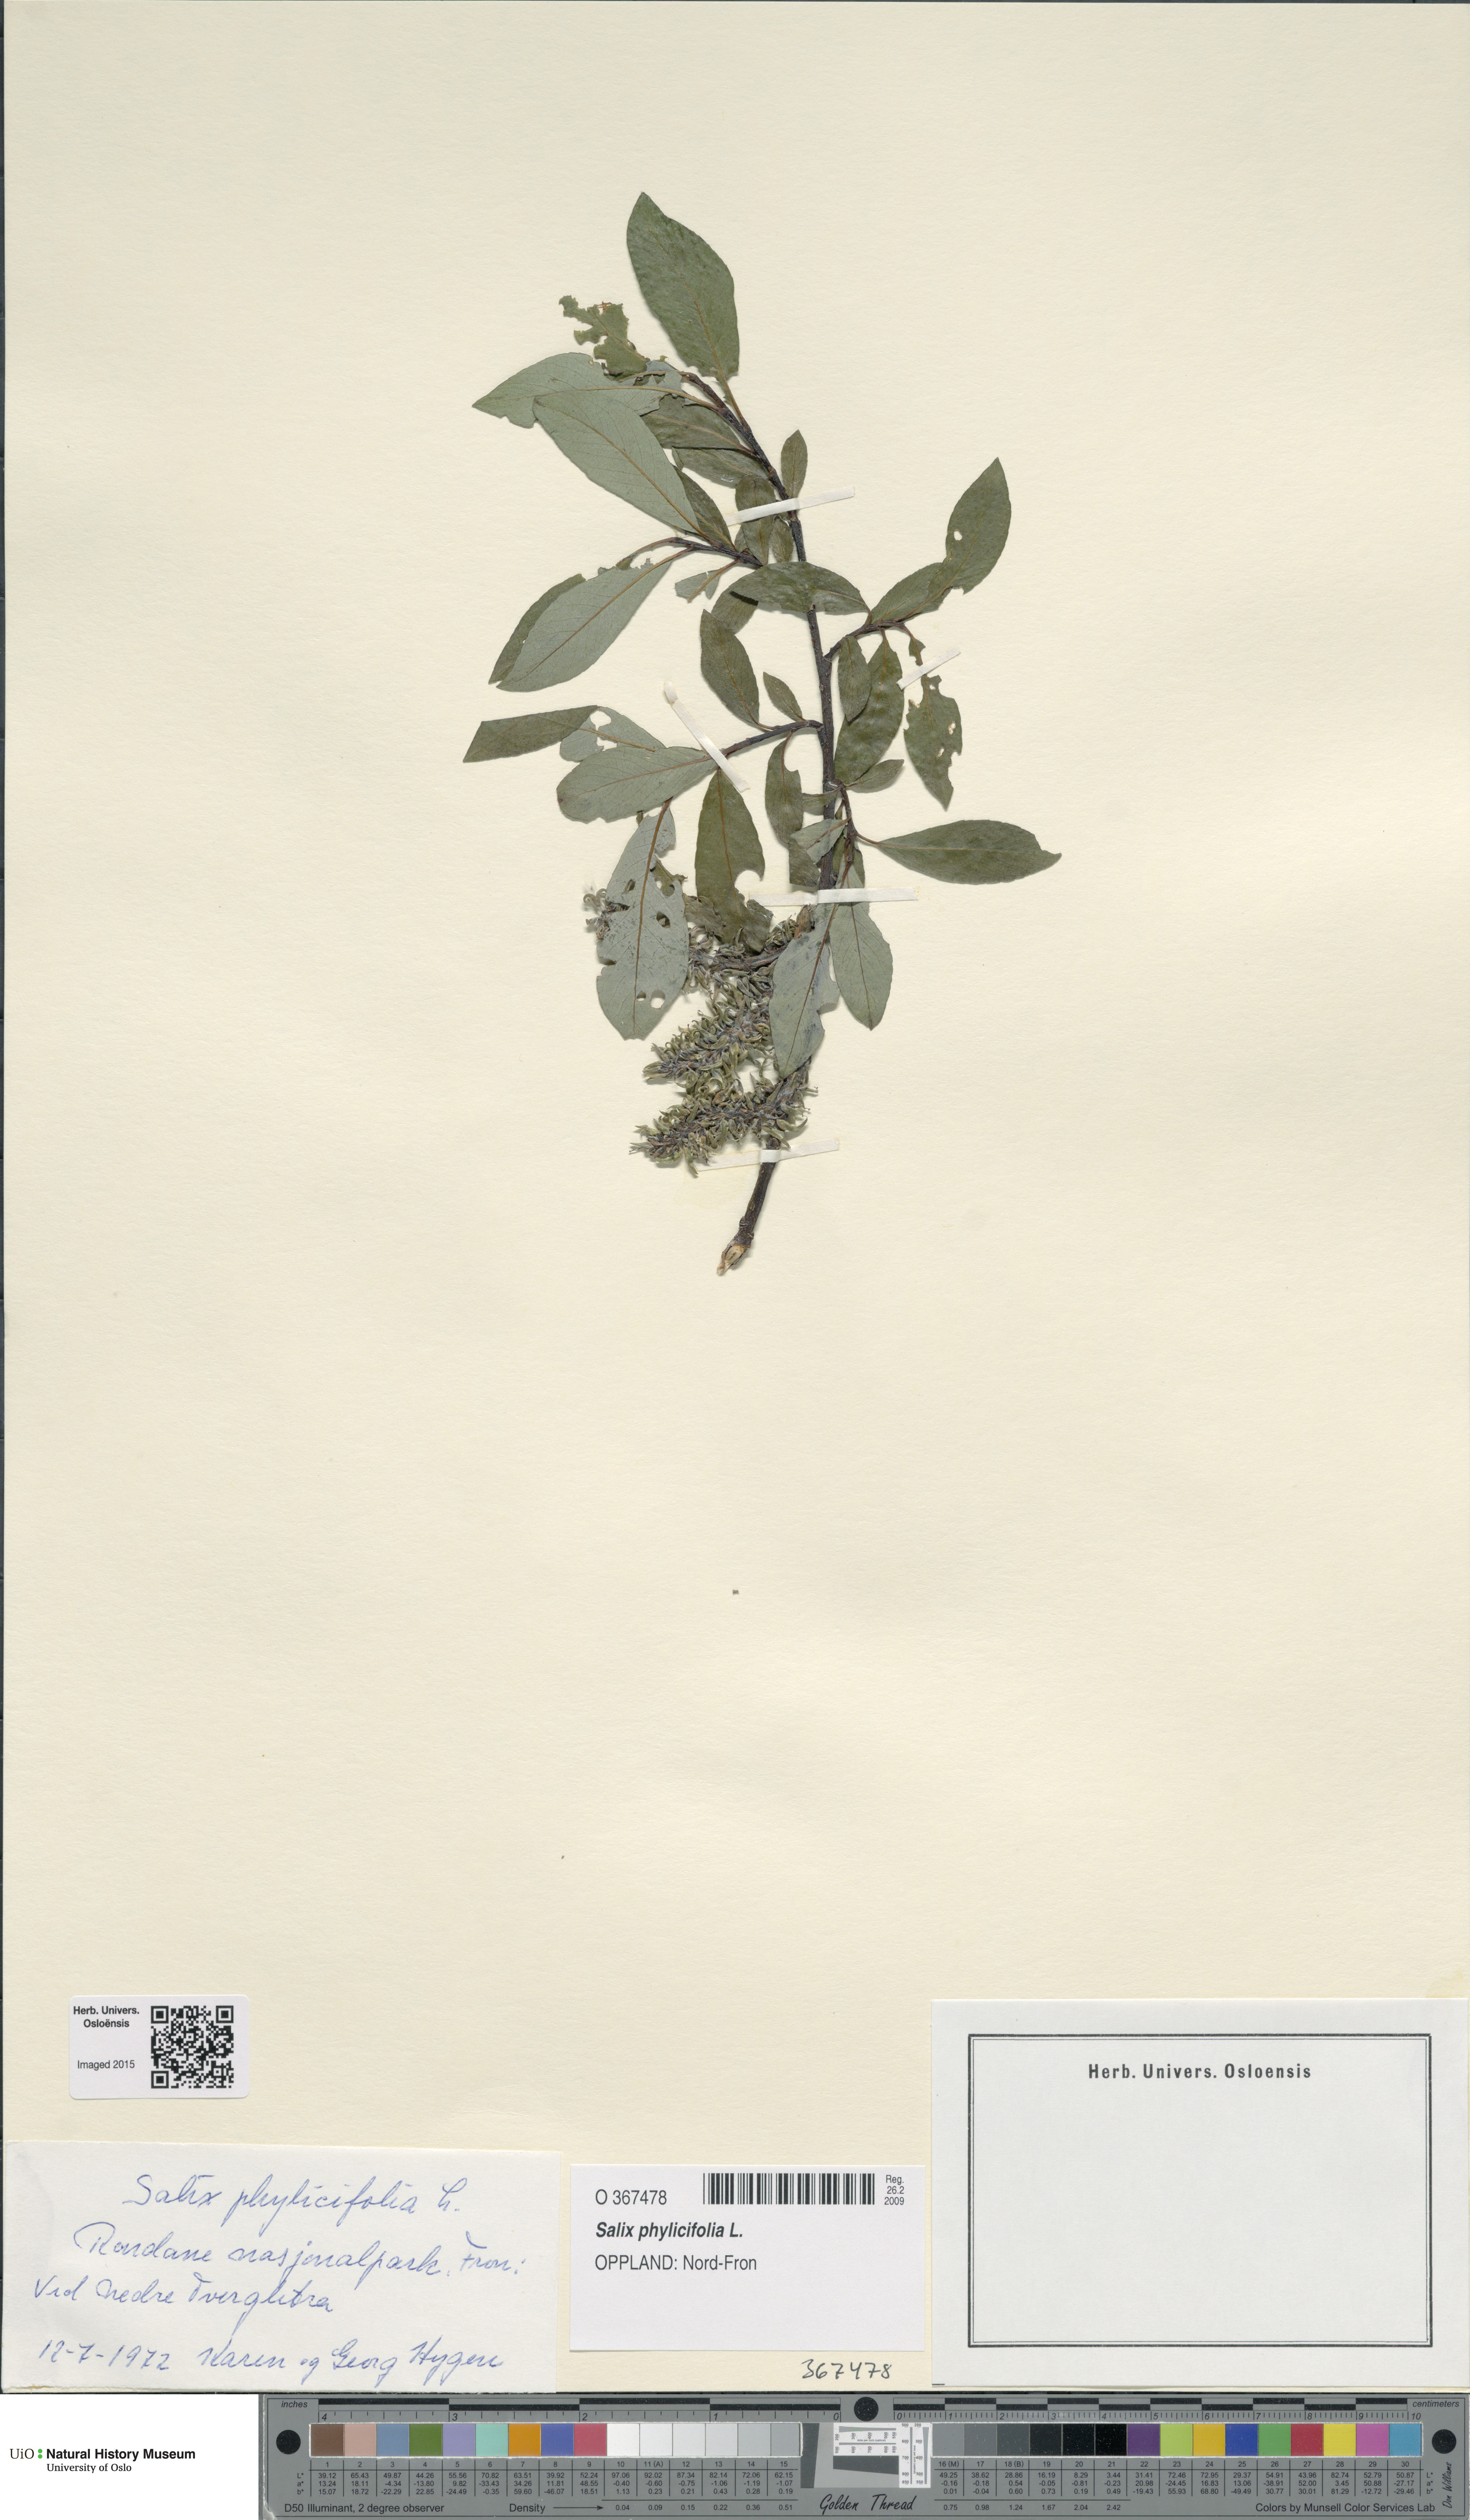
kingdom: Plantae
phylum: Tracheophyta
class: Magnoliopsida
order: Malpighiales
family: Salicaceae
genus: Salix
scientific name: Salix phylicifolia
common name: Tea-leaved willow
